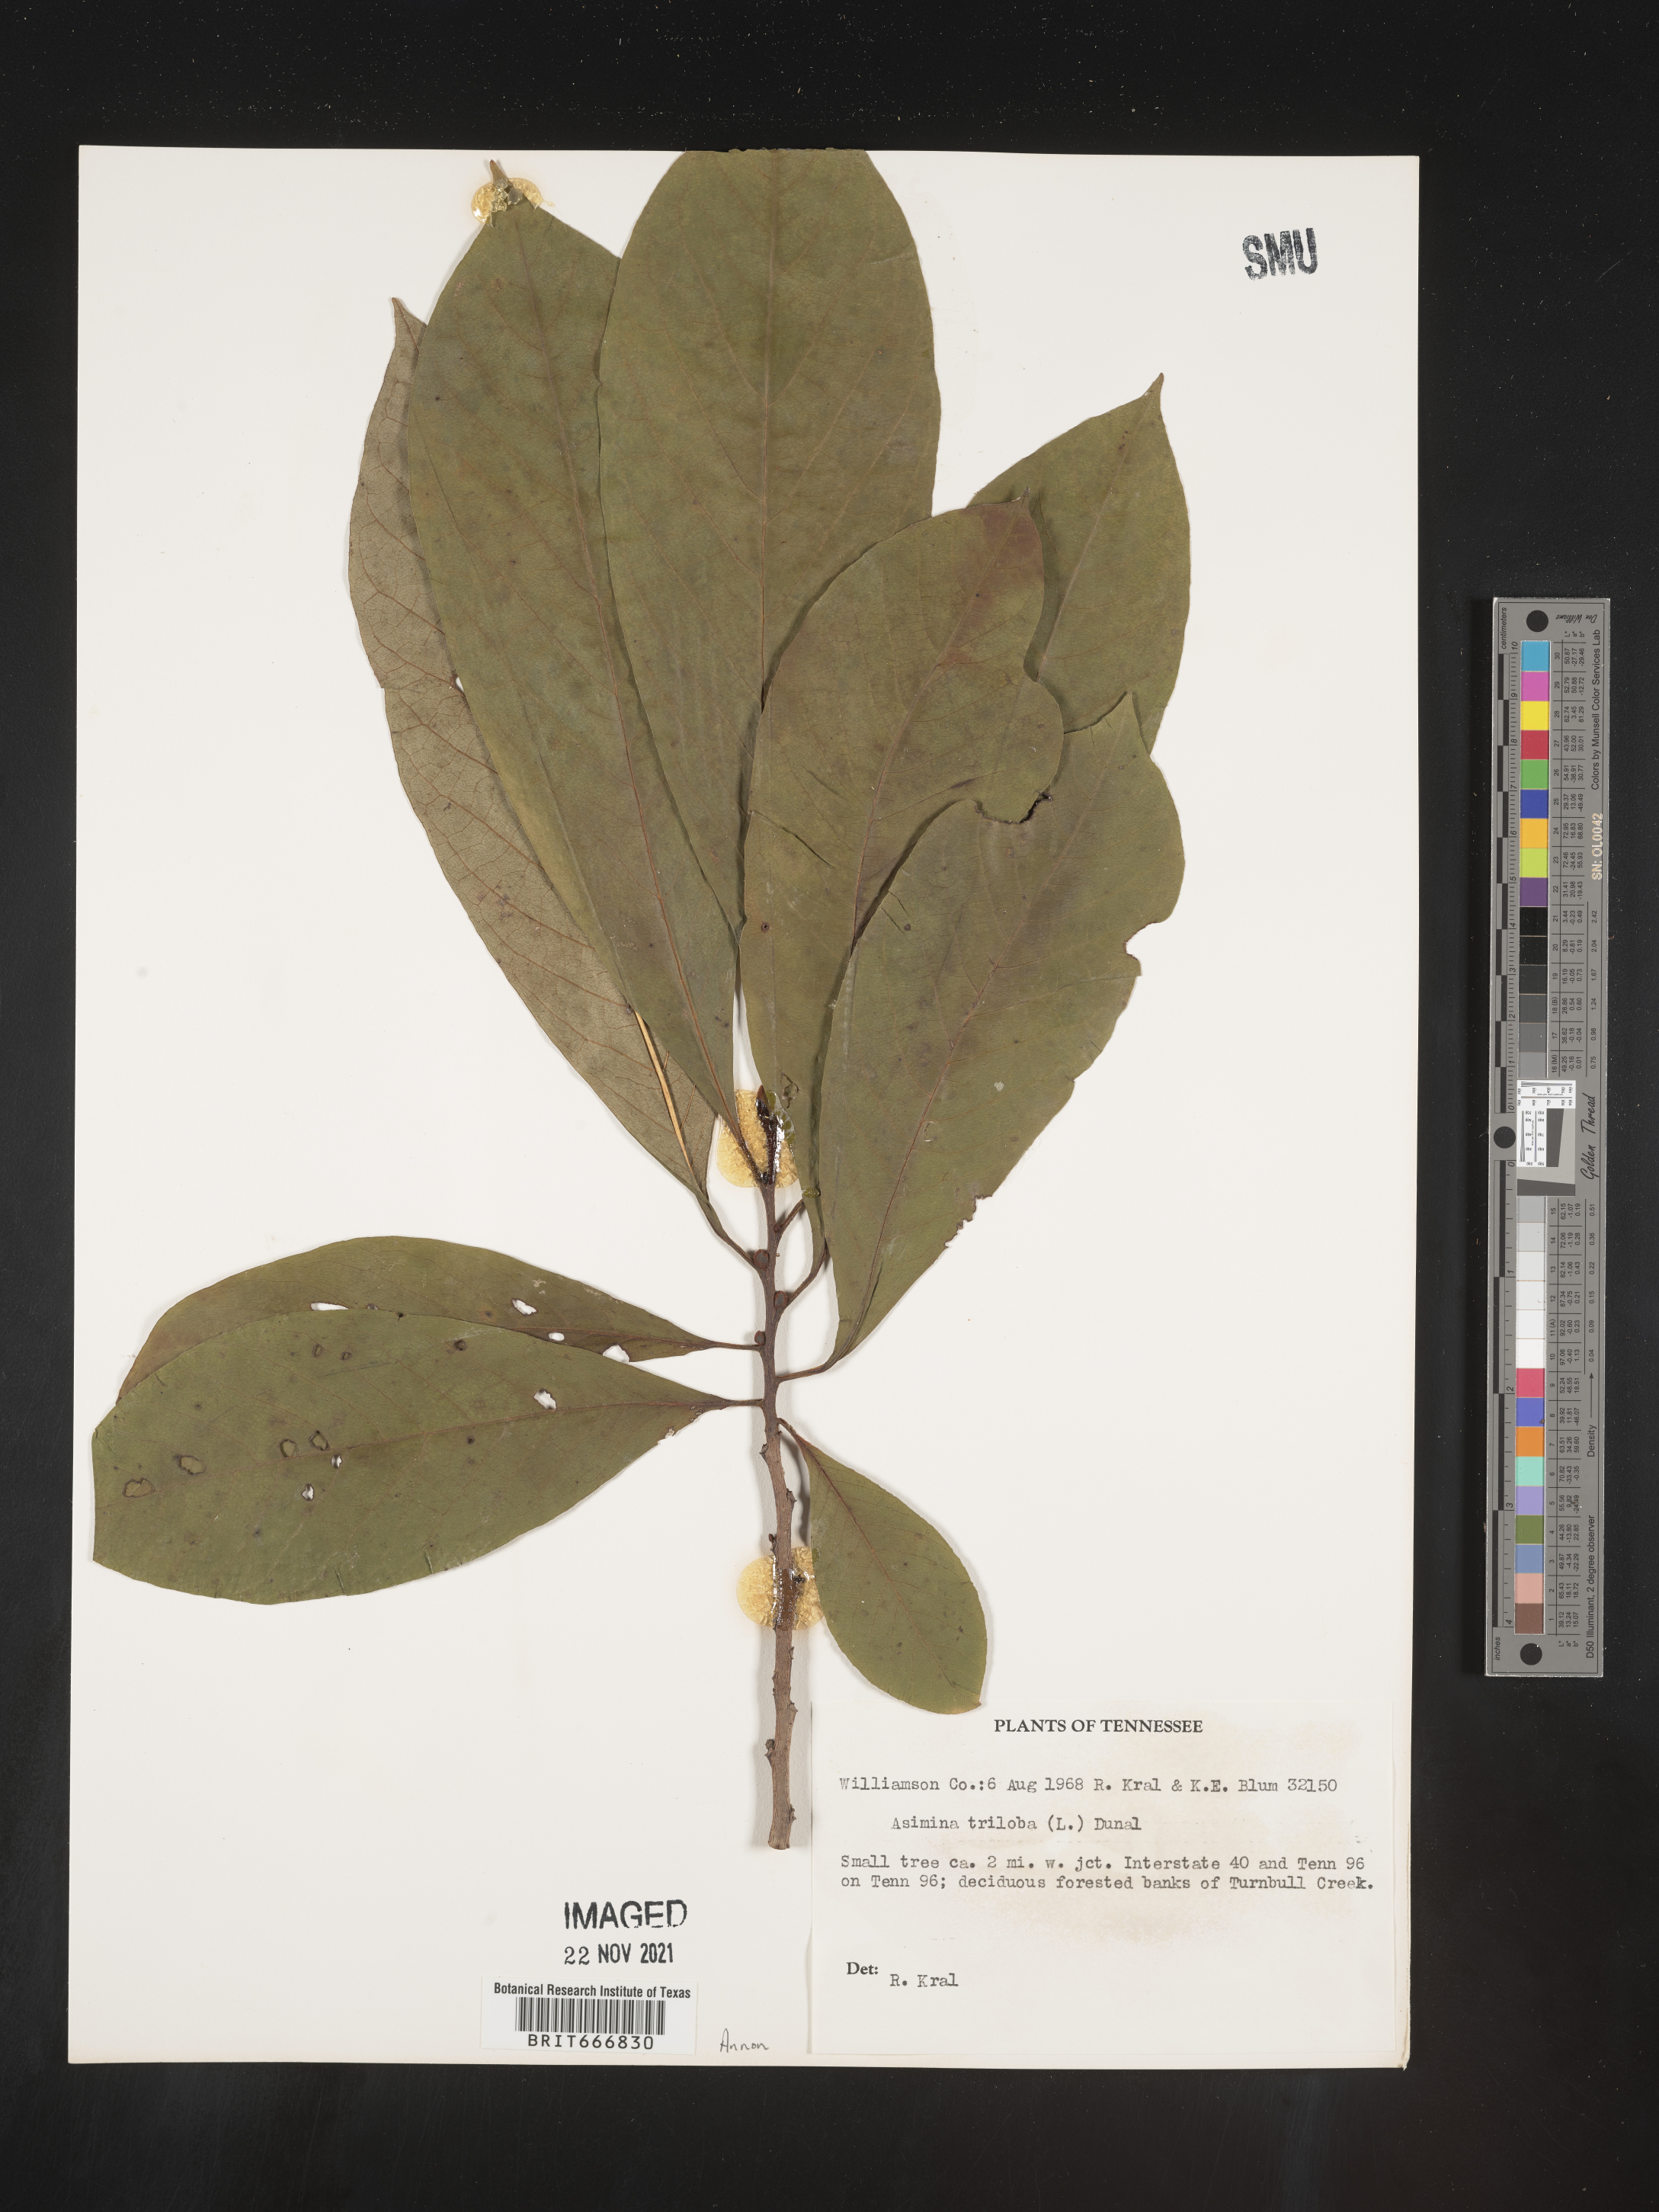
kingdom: Plantae
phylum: Tracheophyta
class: Magnoliopsida
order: Magnoliales
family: Annonaceae
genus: Asimina
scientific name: Asimina triloba
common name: Dog-banana
